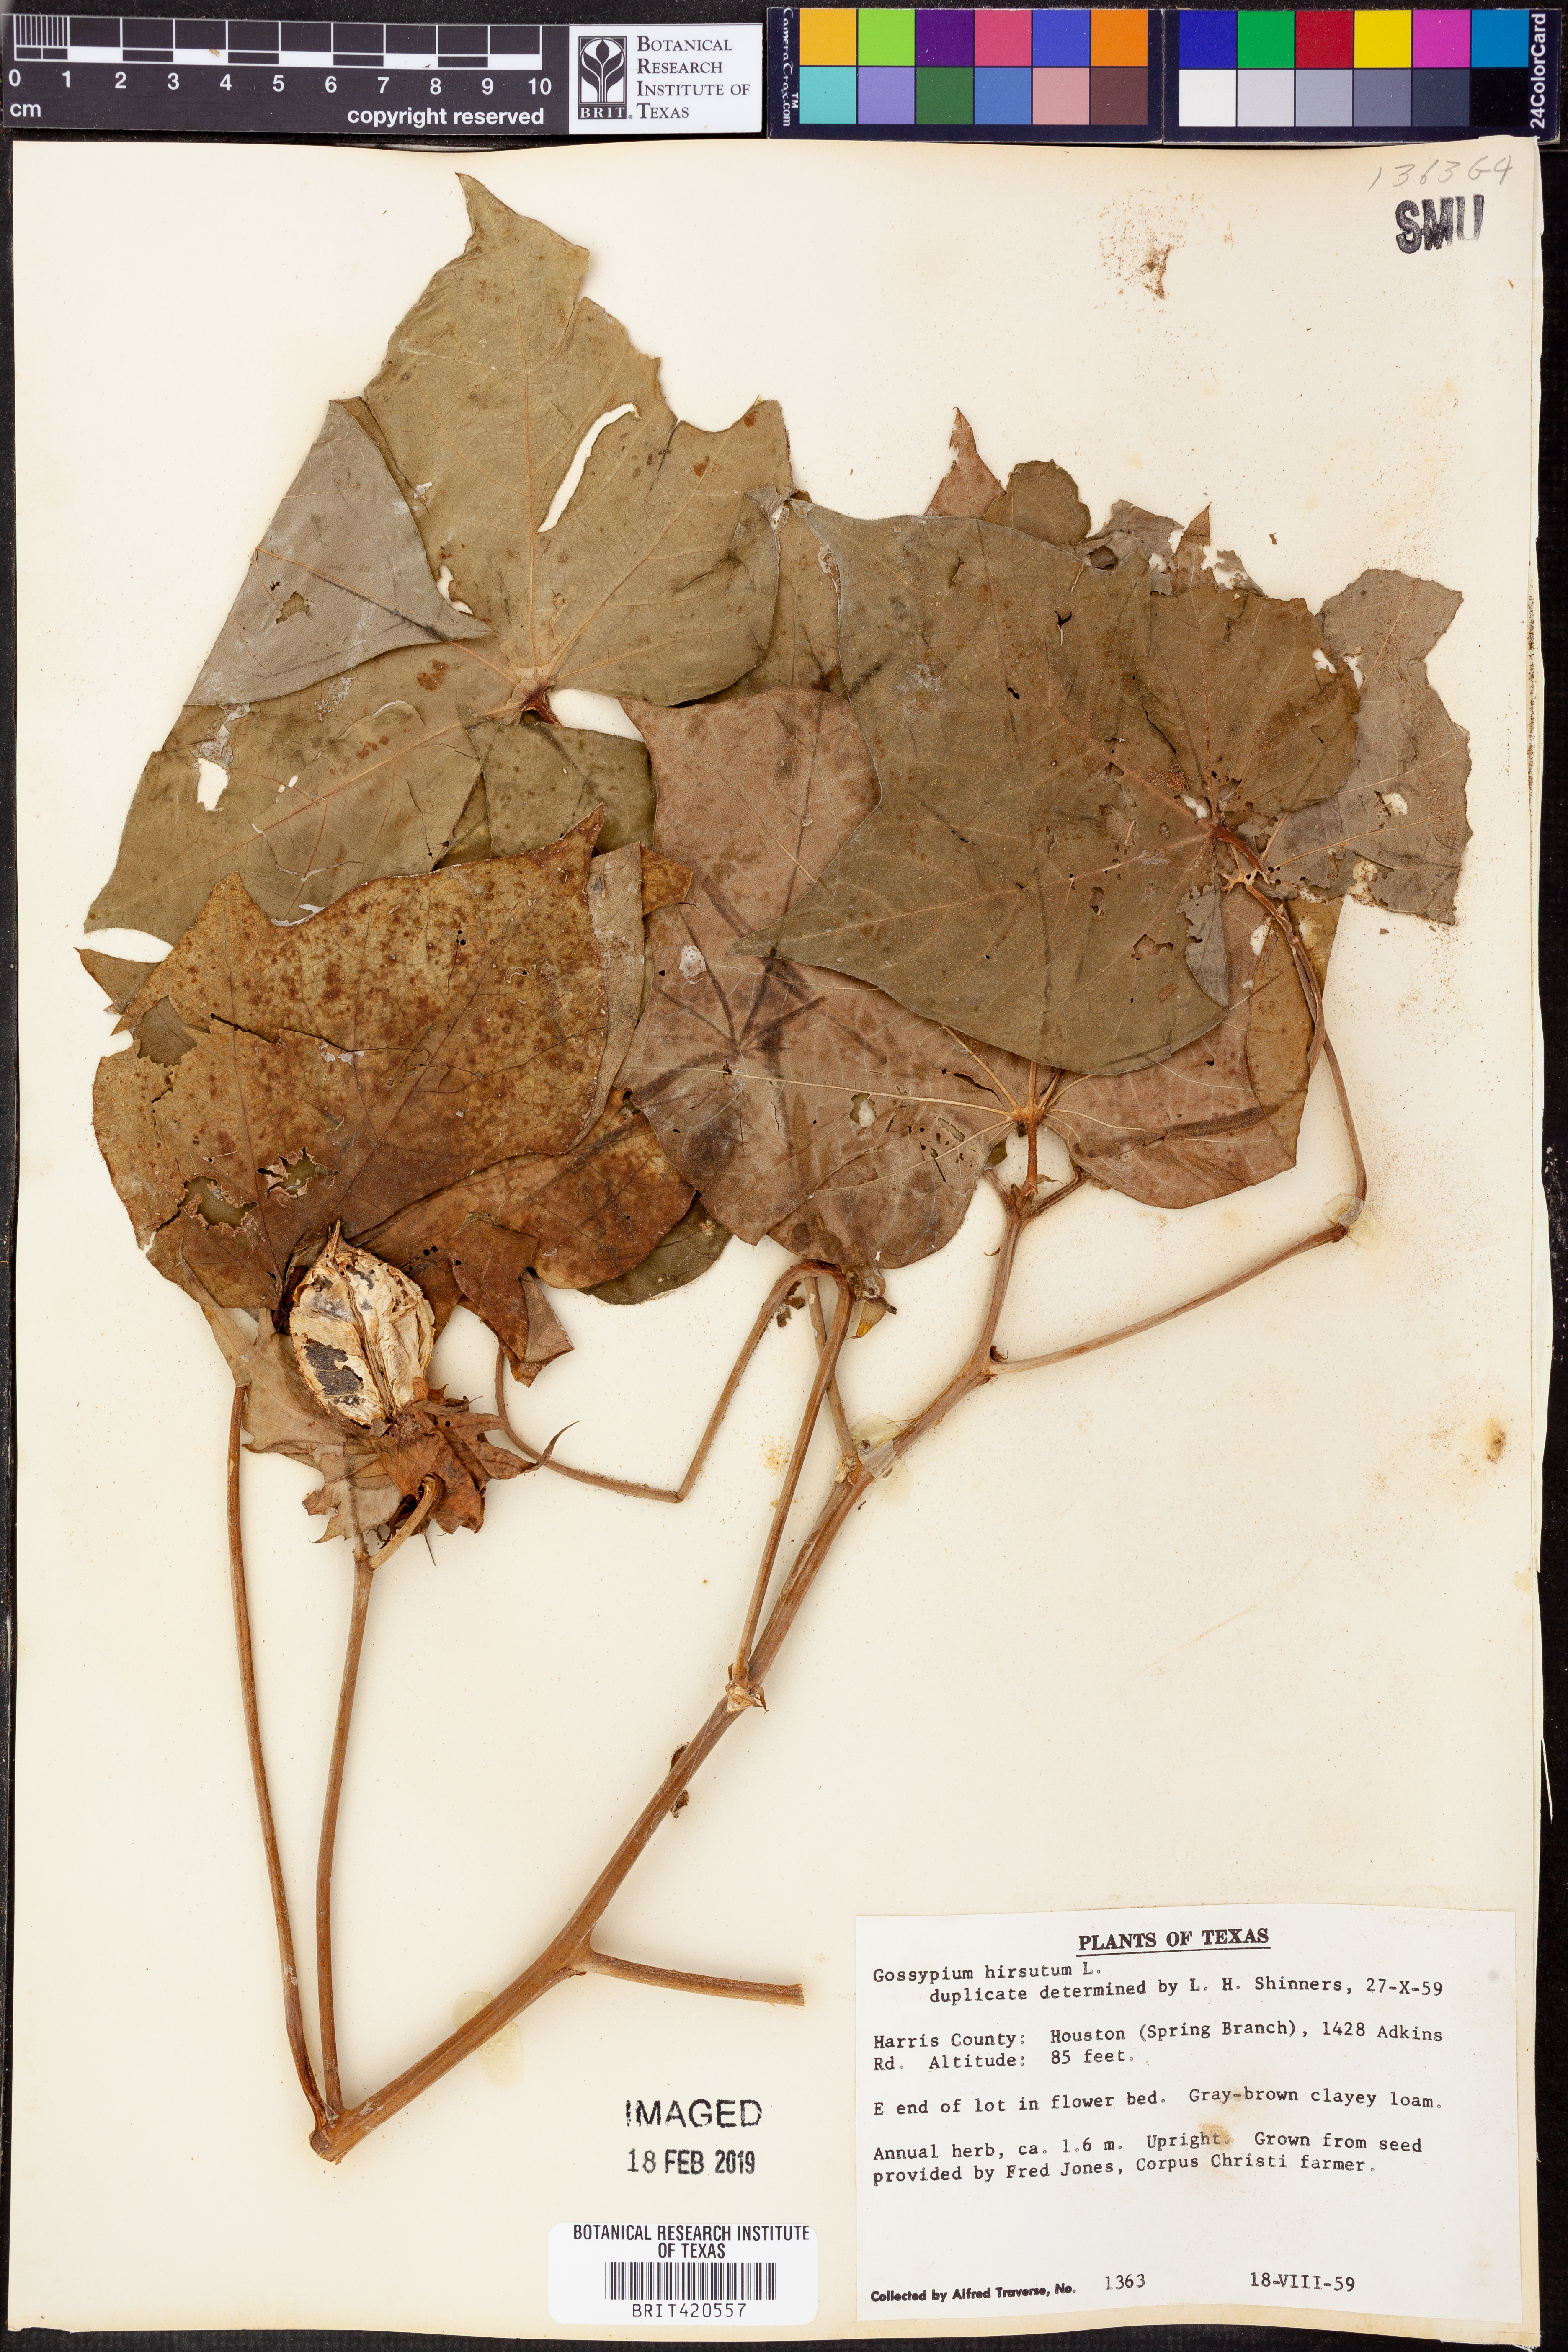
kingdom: Plantae
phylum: Tracheophyta
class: Magnoliopsida
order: Malvales
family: Malvaceae
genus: Gossypium
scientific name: Gossypium hirsutum
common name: Cotton
